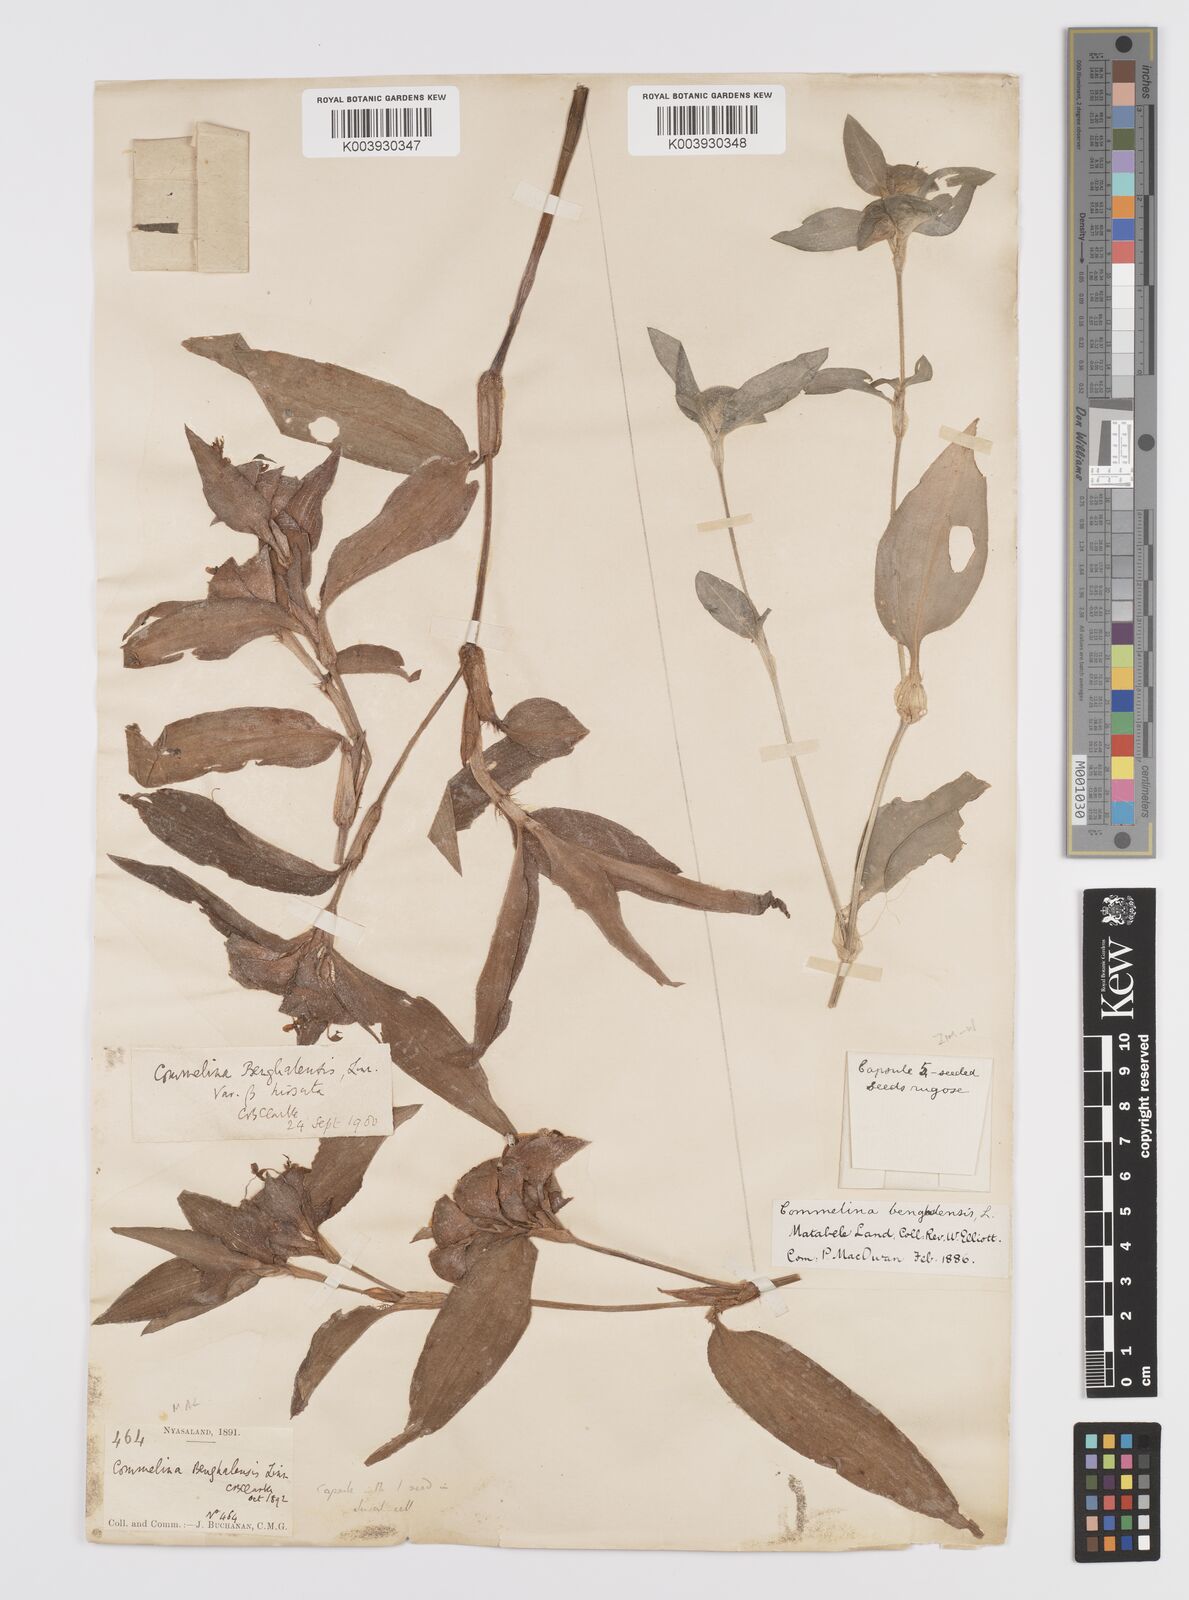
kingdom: Plantae
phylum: Tracheophyta
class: Liliopsida
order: Commelinales
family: Commelinaceae
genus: Commelina
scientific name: Commelina benghalensis
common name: Jio
